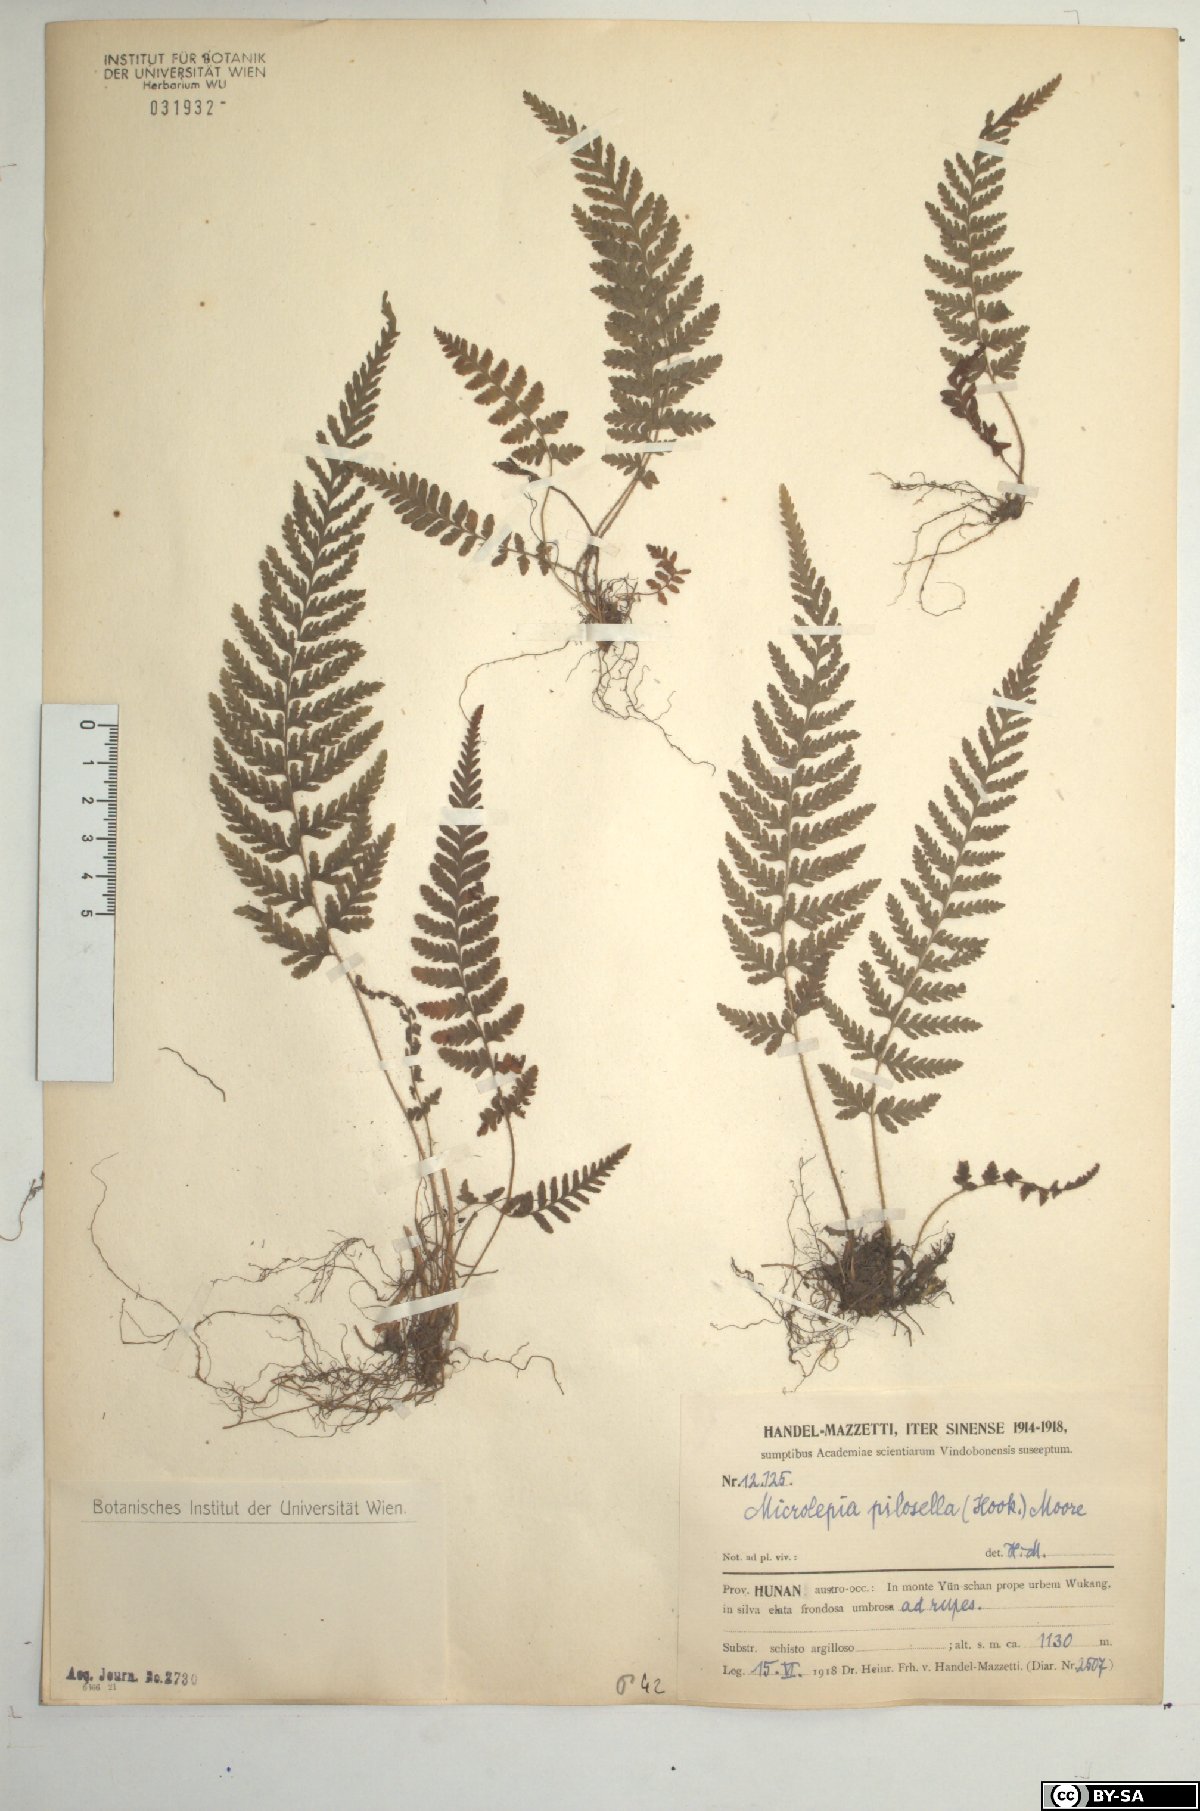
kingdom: Plantae
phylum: Tracheophyta
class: Polypodiopsida
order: Polypodiales
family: Dennstaedtiaceae
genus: Sitobolium
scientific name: Sitobolium hirsutum
